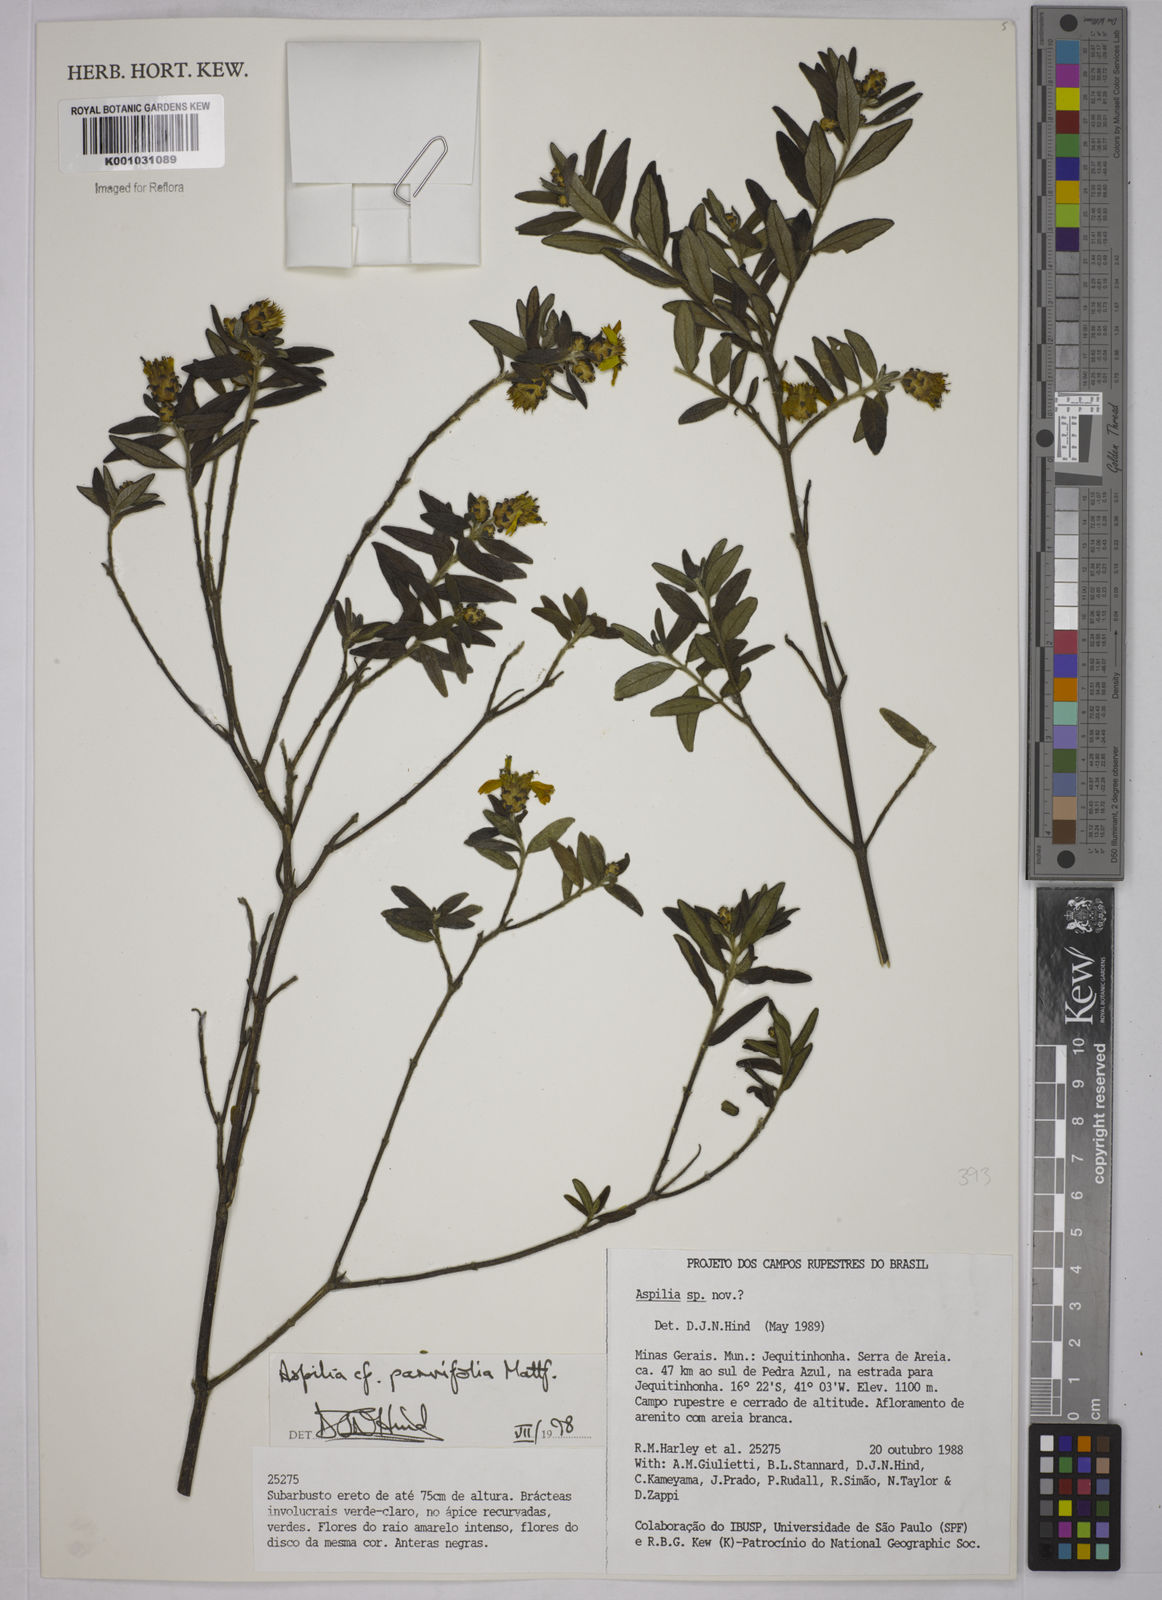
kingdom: Plantae
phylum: Tracheophyta
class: Magnoliopsida
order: Asterales
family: Asteraceae
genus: Aspilia
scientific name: Aspilia foliosa
